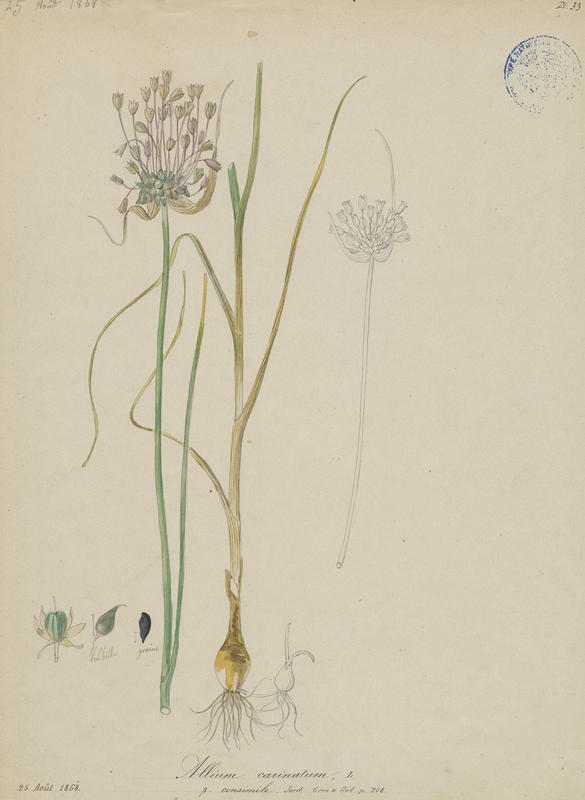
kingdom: Plantae
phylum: Tracheophyta
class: Liliopsida
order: Asparagales
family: Amaryllidaceae
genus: Allium
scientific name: Allium carinatum
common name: Keeled garlic
